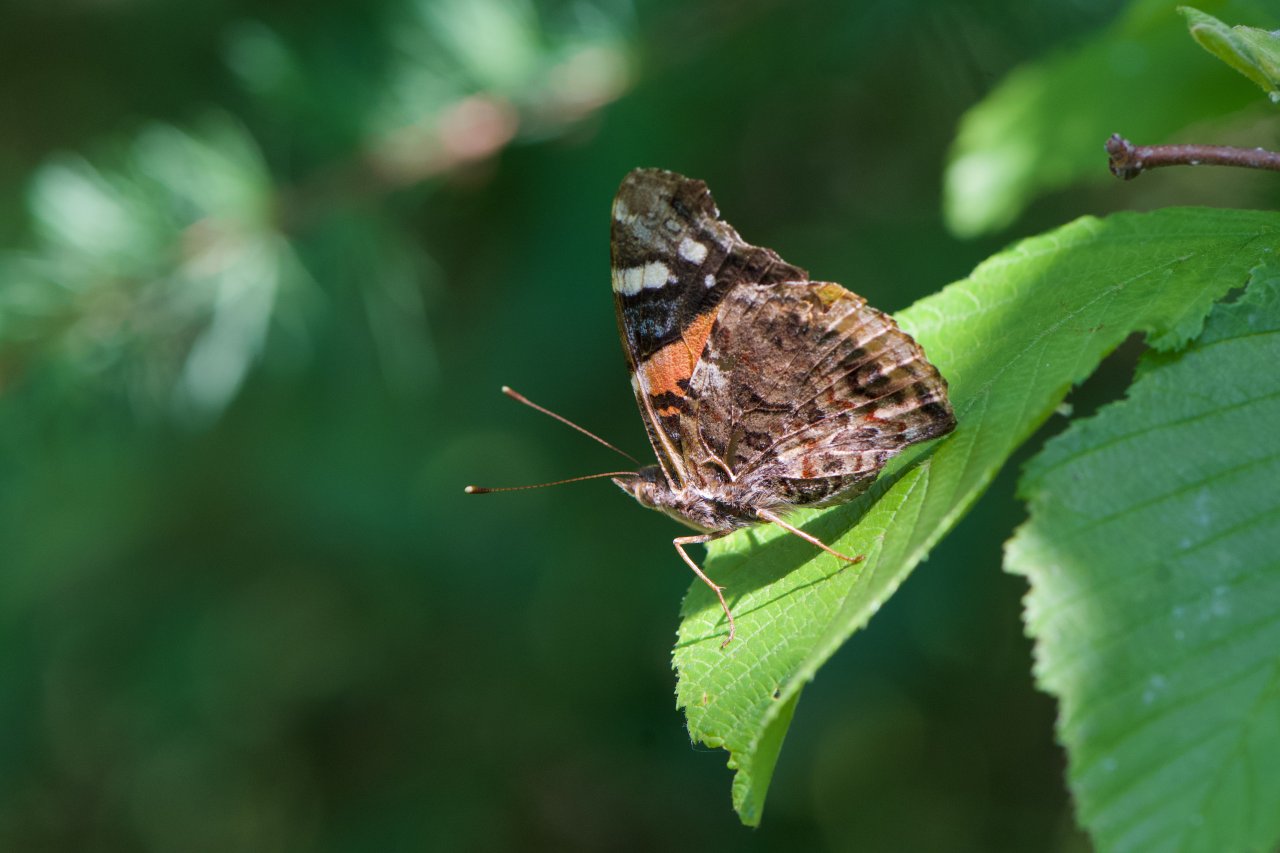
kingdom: Animalia
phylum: Arthropoda
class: Insecta
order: Lepidoptera
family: Nymphalidae
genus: Vanessa
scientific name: Vanessa atalanta
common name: Red Admiral
